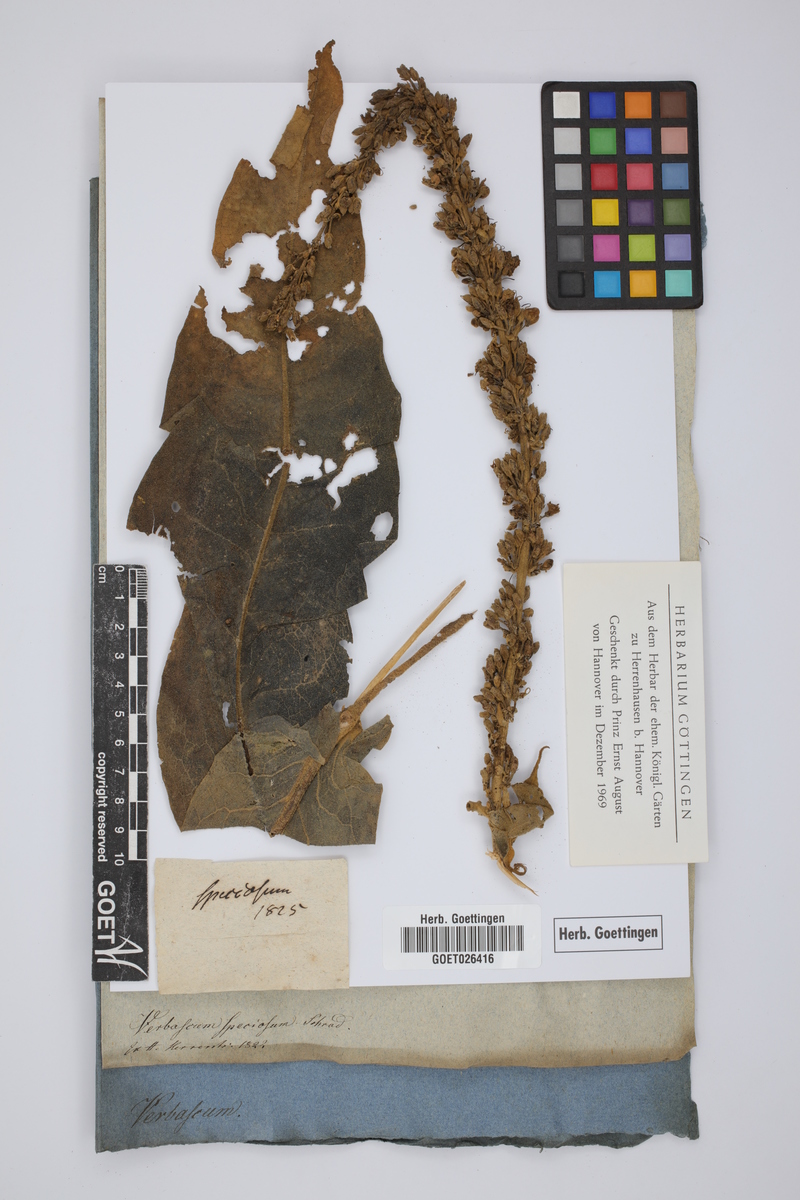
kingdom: Plantae
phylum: Tracheophyta
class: Magnoliopsida
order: Lamiales
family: Scrophulariaceae
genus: Verbascum
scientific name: Verbascum speciosum
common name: Hungarian mullein
